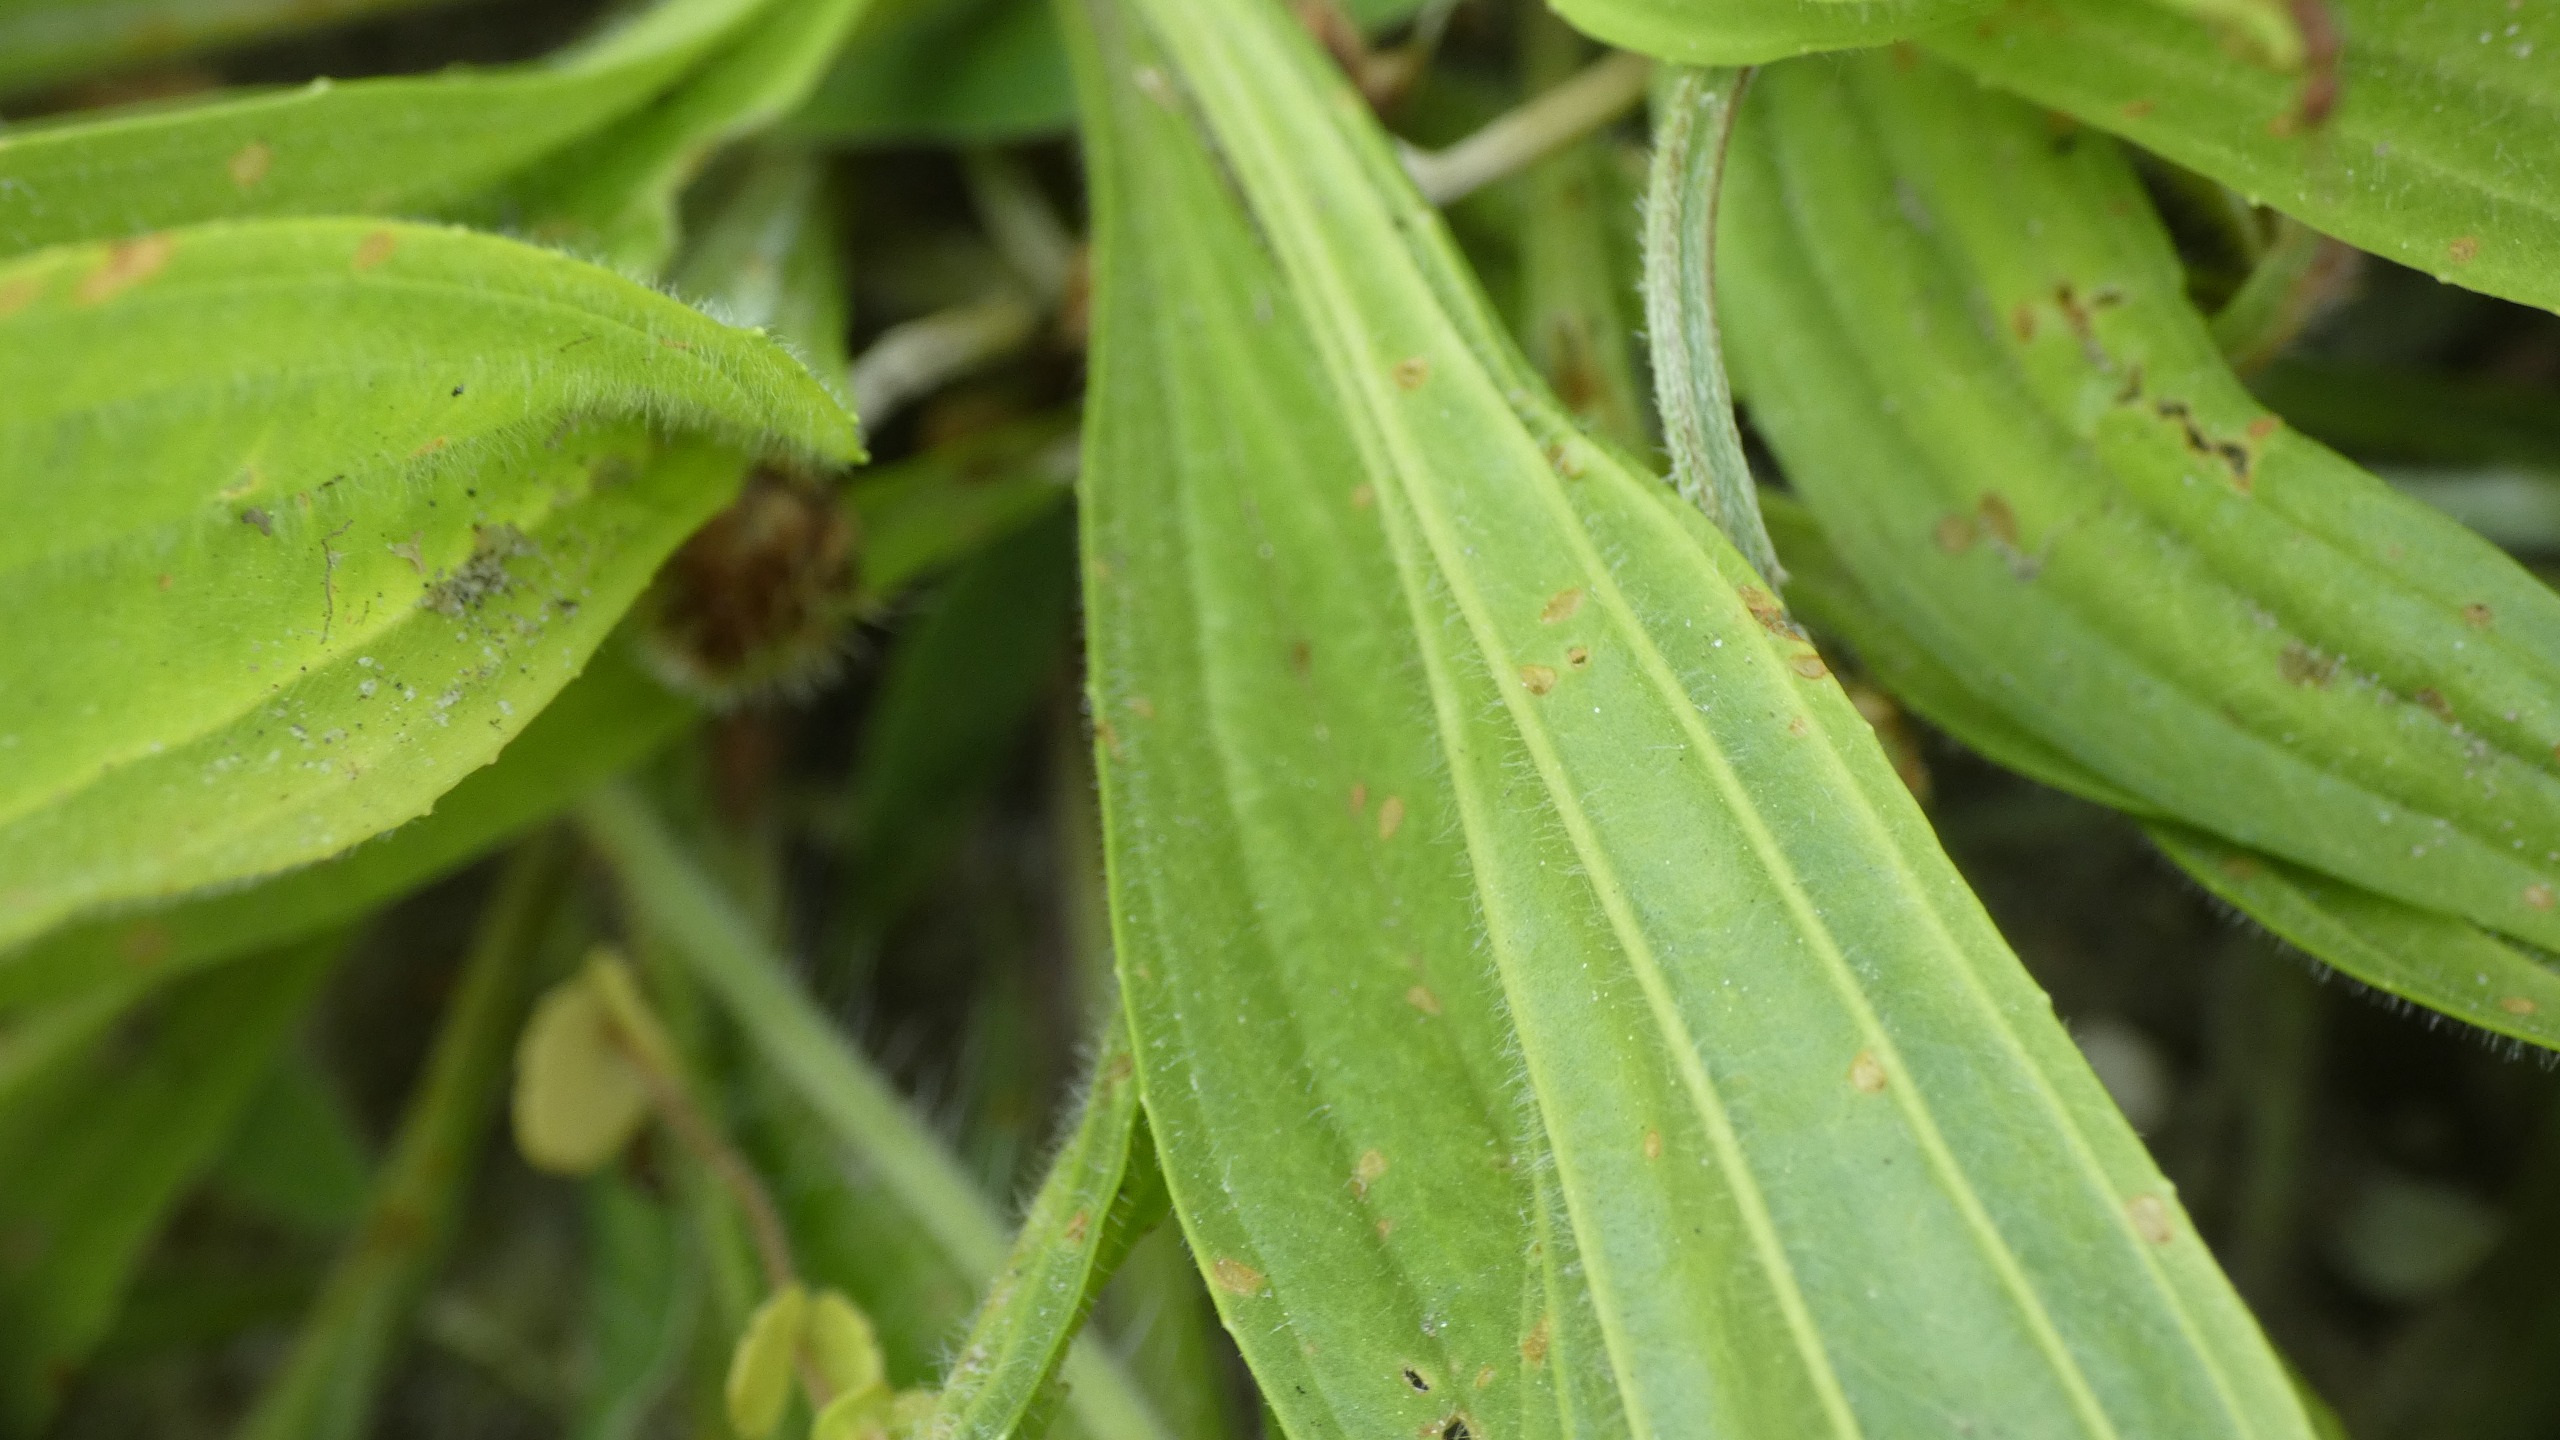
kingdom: Plantae
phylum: Tracheophyta
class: Magnoliopsida
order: Lamiales
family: Plantaginaceae
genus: Plantago
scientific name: Plantago lanceolata
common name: Lancet-vejbred
